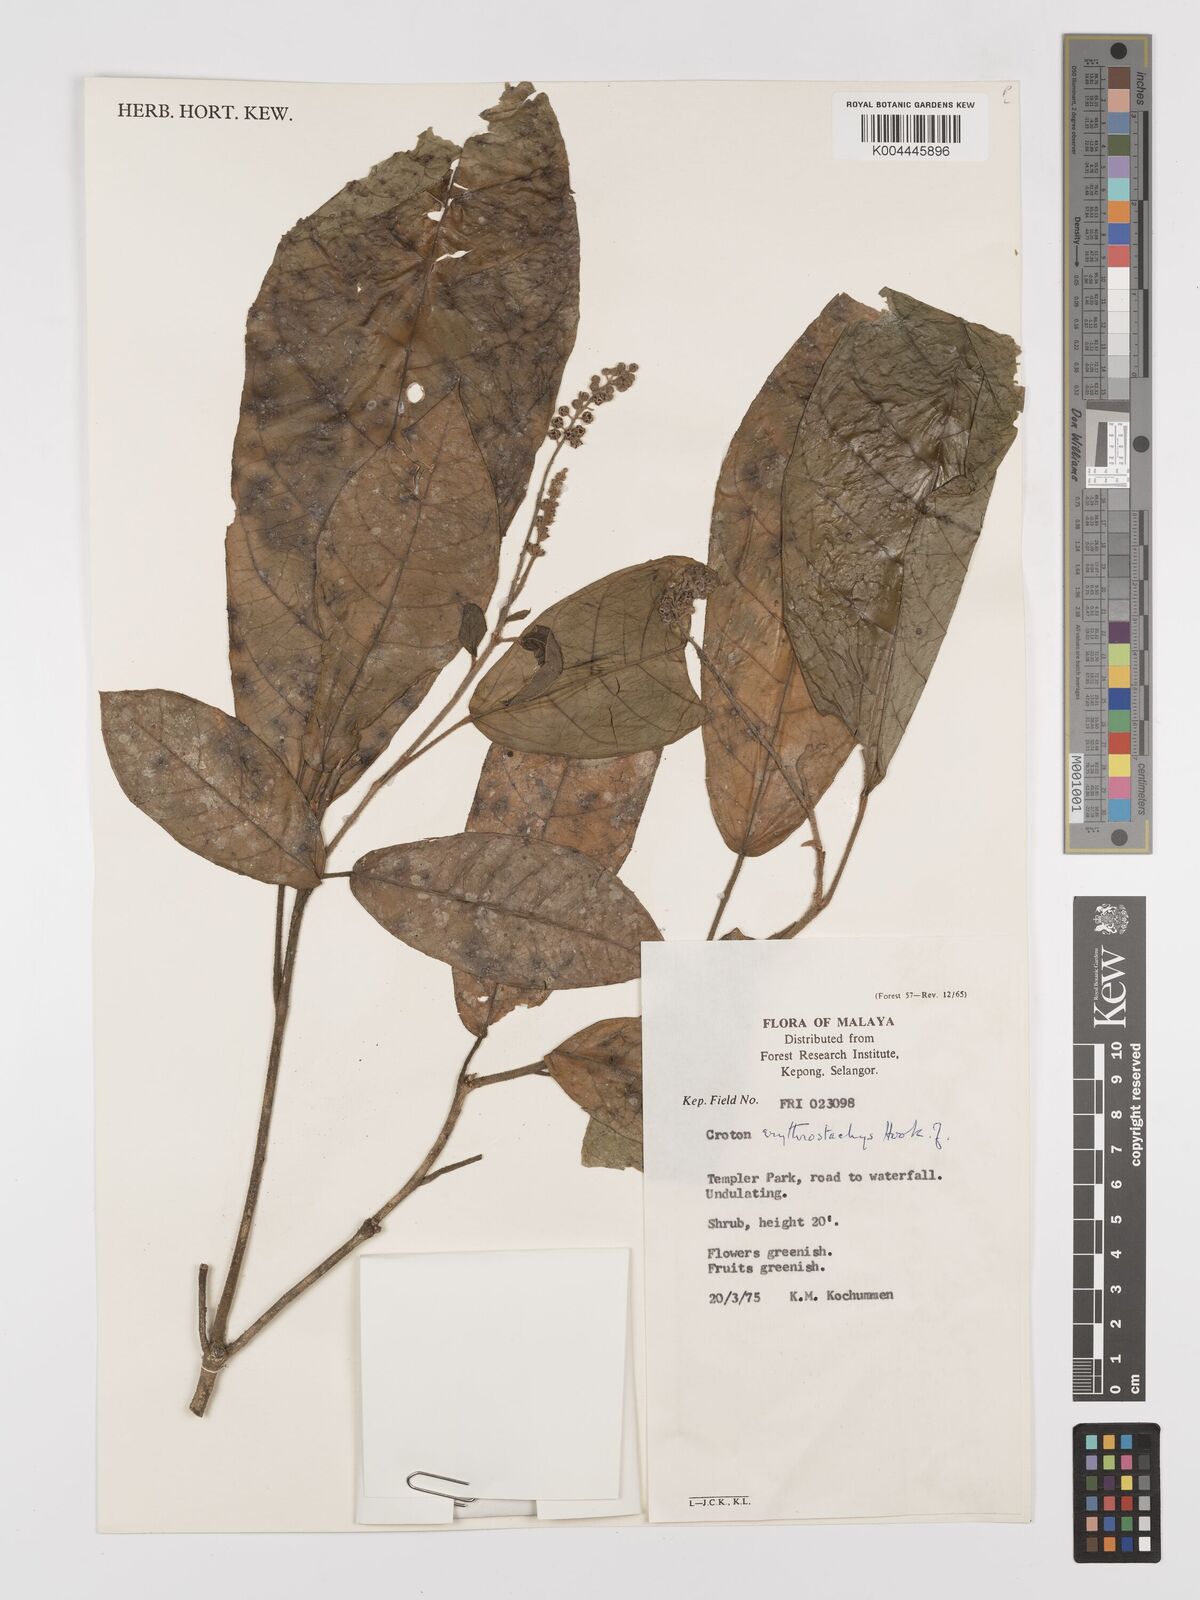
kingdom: Plantae
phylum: Tracheophyta
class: Magnoliopsida
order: Malpighiales
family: Euphorbiaceae
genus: Croton
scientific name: Croton erythrostachys
